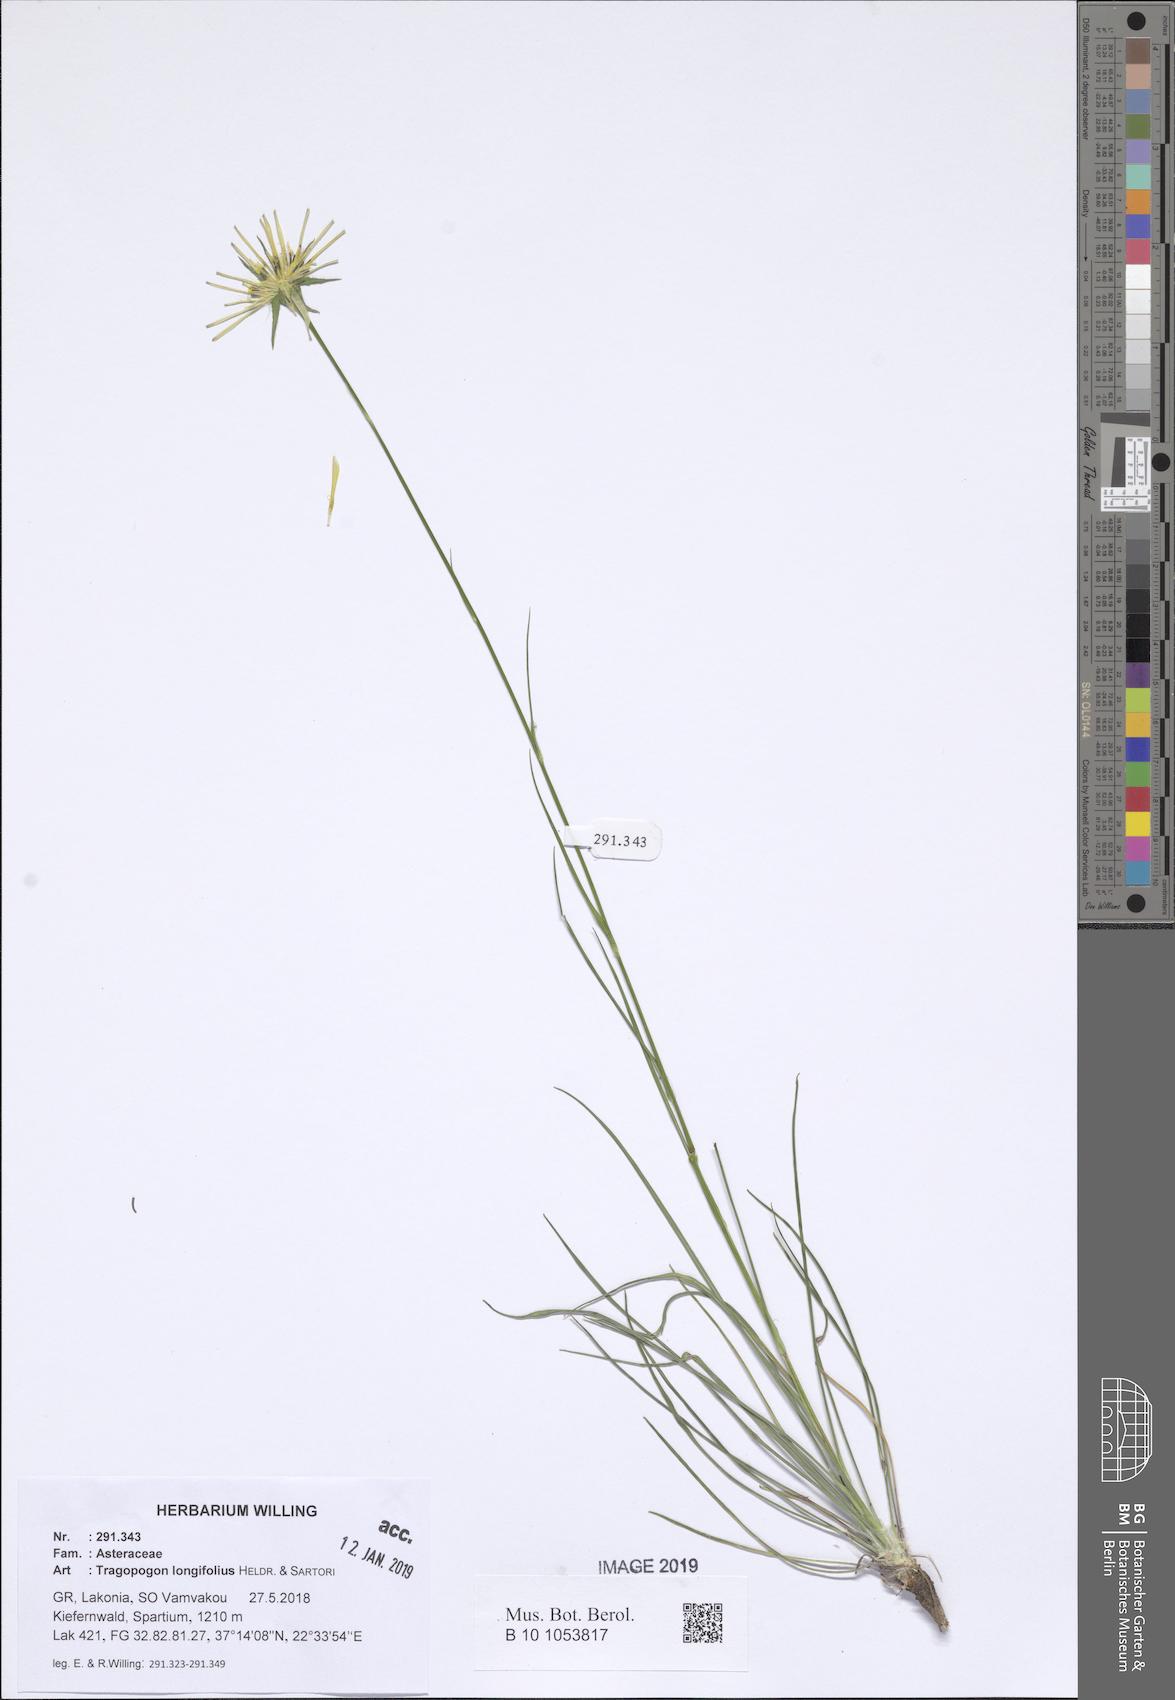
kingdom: Plantae
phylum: Tracheophyta
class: Magnoliopsida
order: Asterales
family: Asteraceae
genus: Tragopogon
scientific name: Tragopogon longifolius
